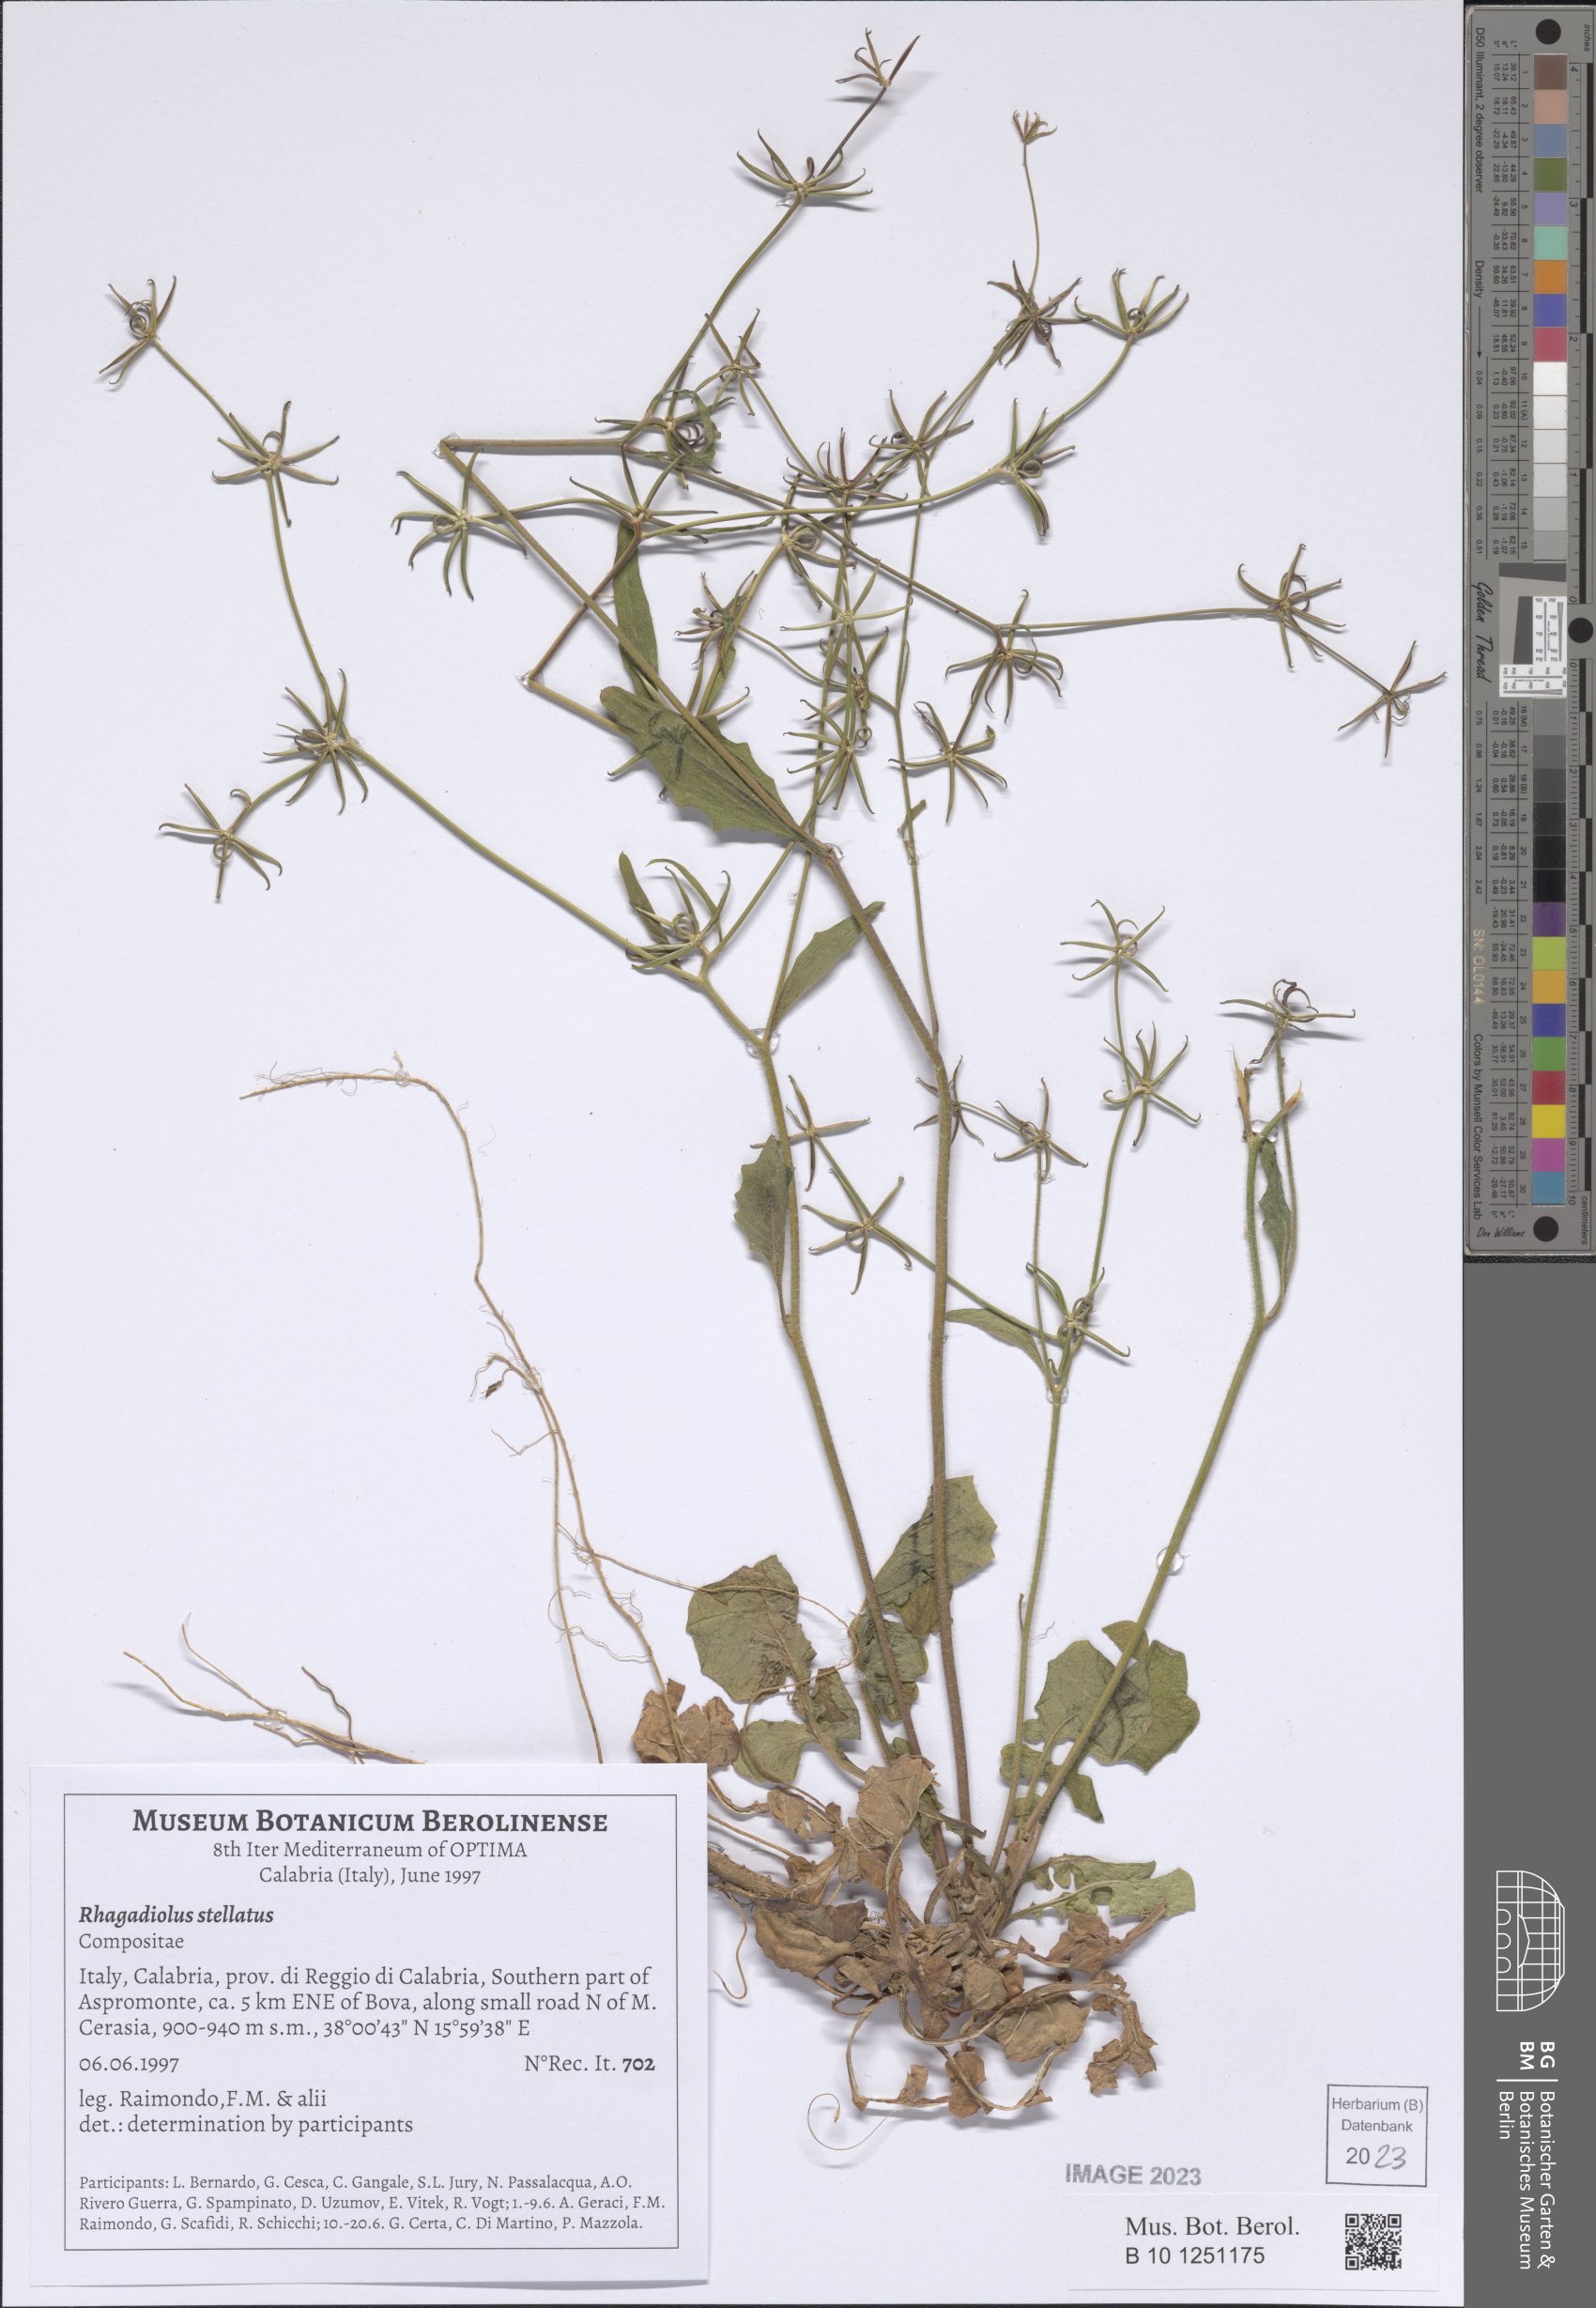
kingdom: Plantae
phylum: Tracheophyta
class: Magnoliopsida
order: Asterales
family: Asteraceae
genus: Rhagadiolus
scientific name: Rhagadiolus stellatus
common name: Star hawkbit
